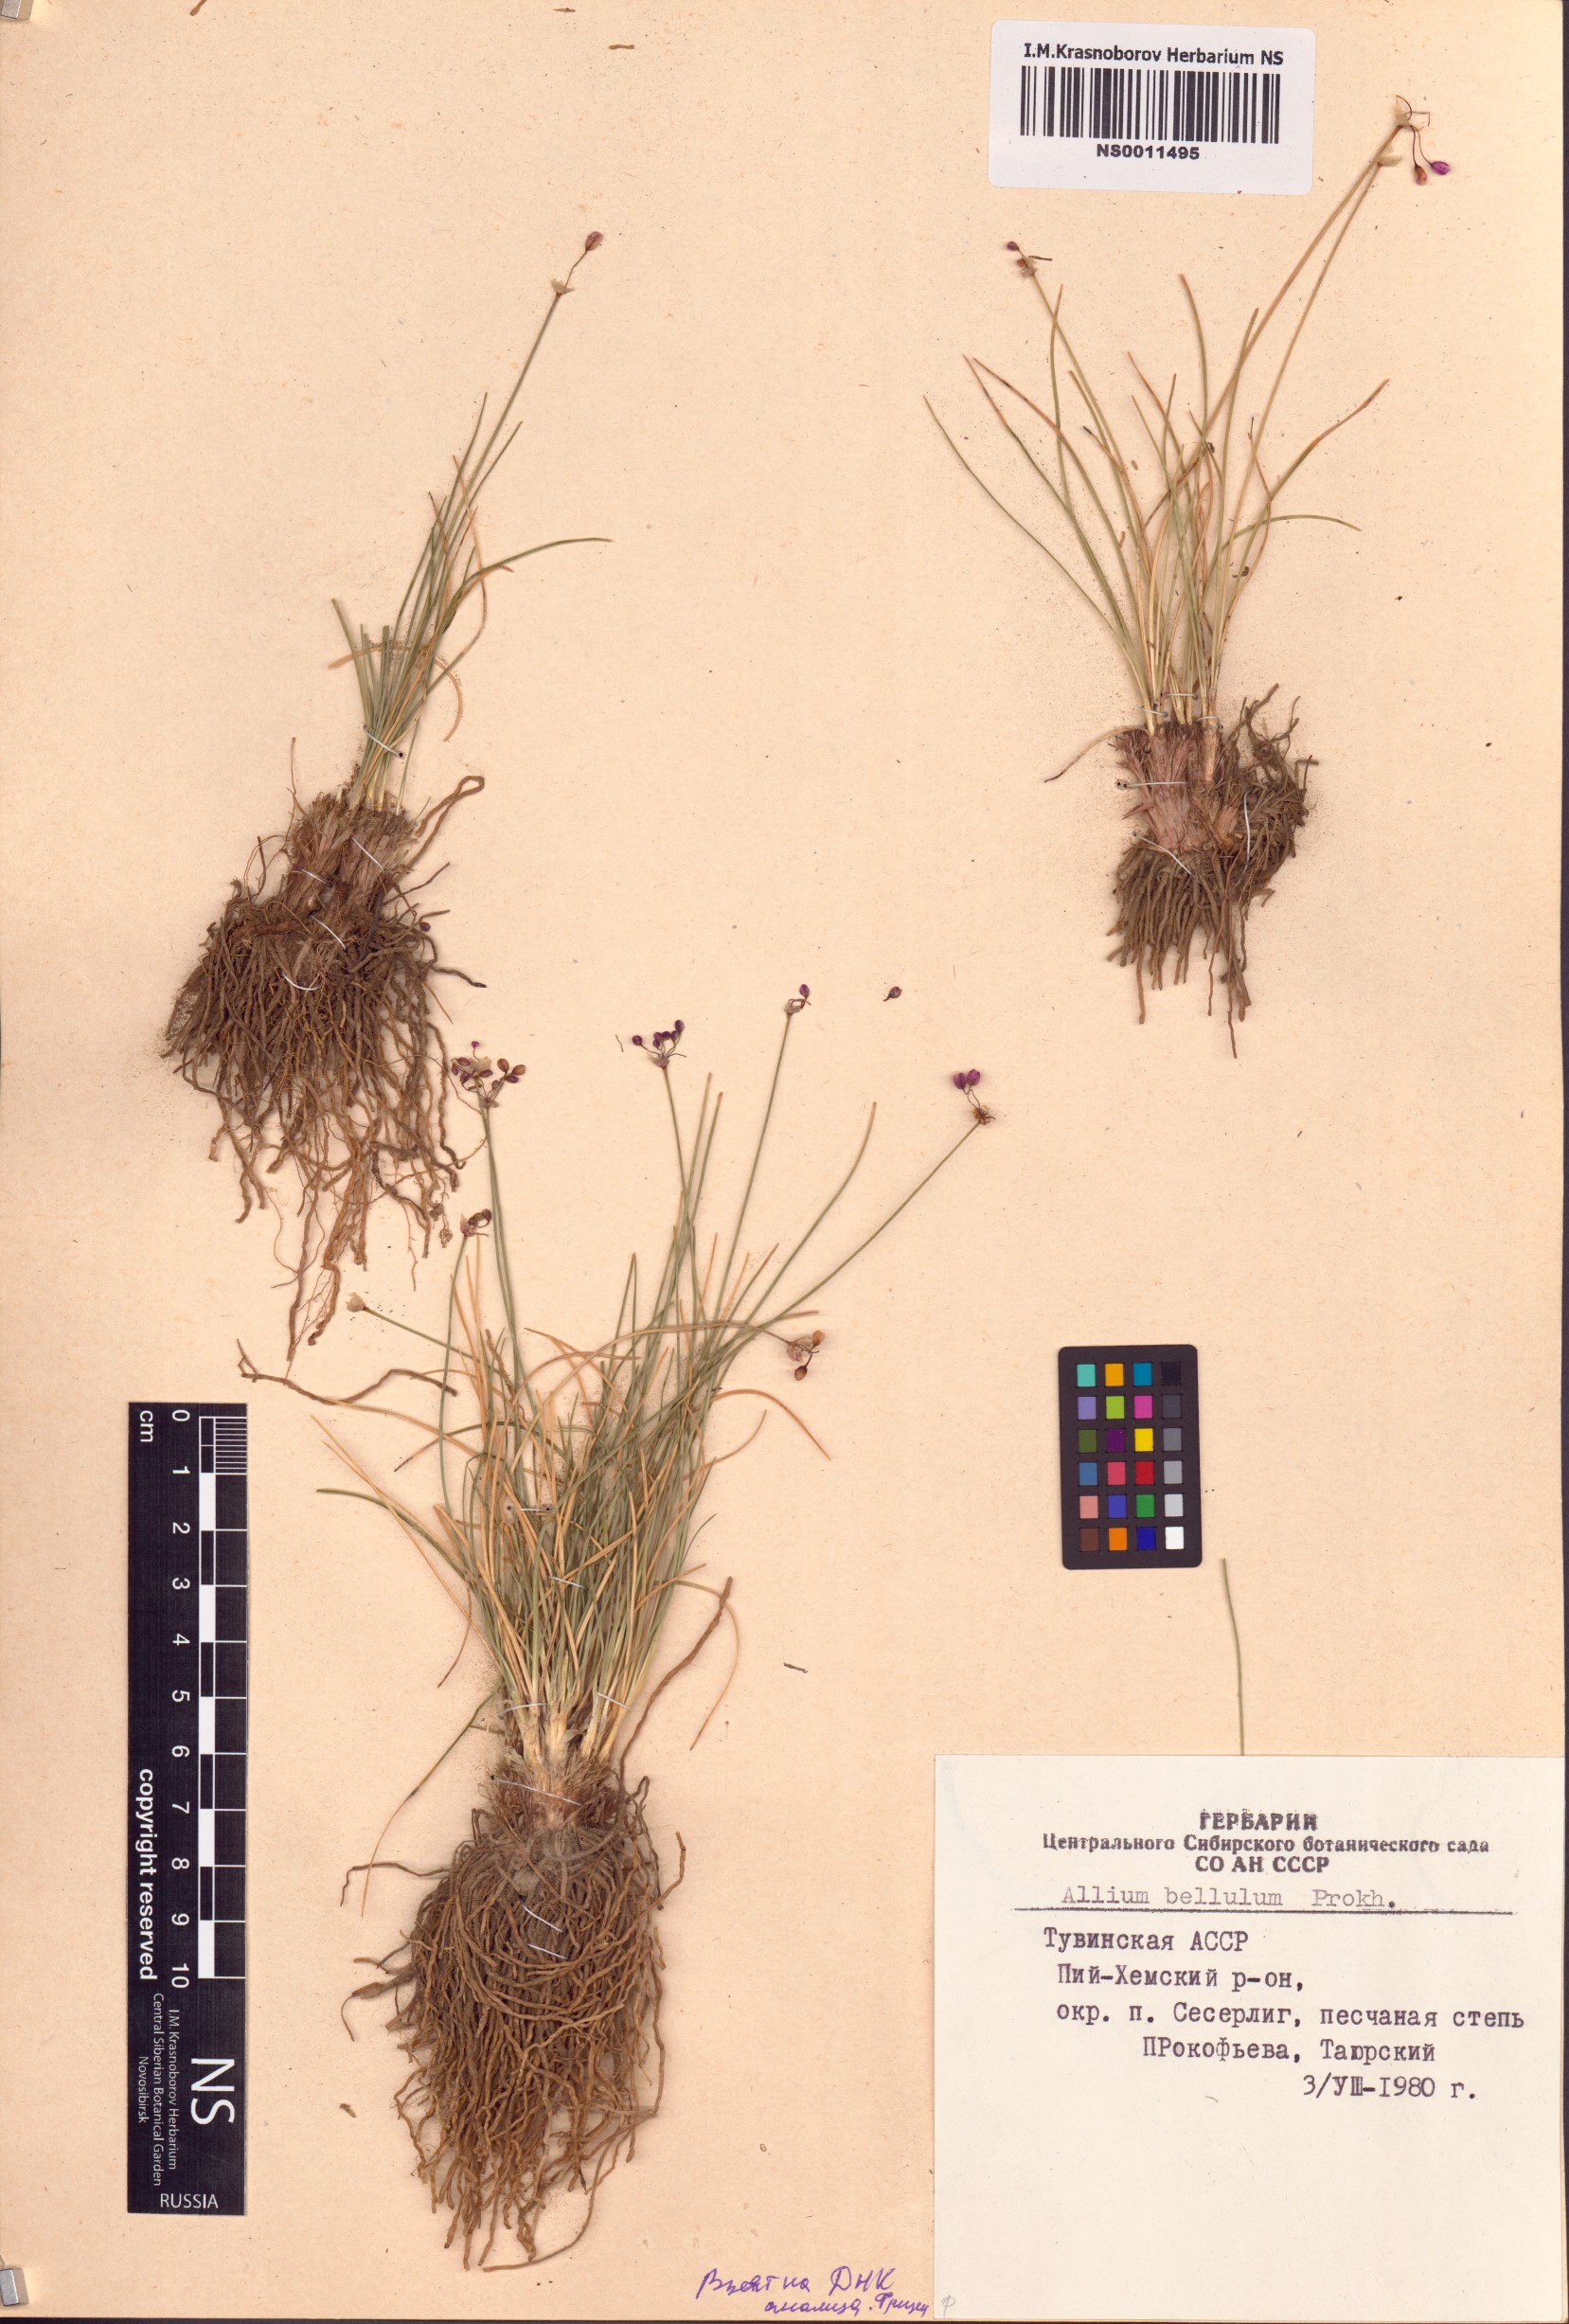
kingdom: Plantae
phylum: Tracheophyta
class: Liliopsida
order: Asparagales
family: Amaryllidaceae
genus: Allium
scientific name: Allium bellulum
